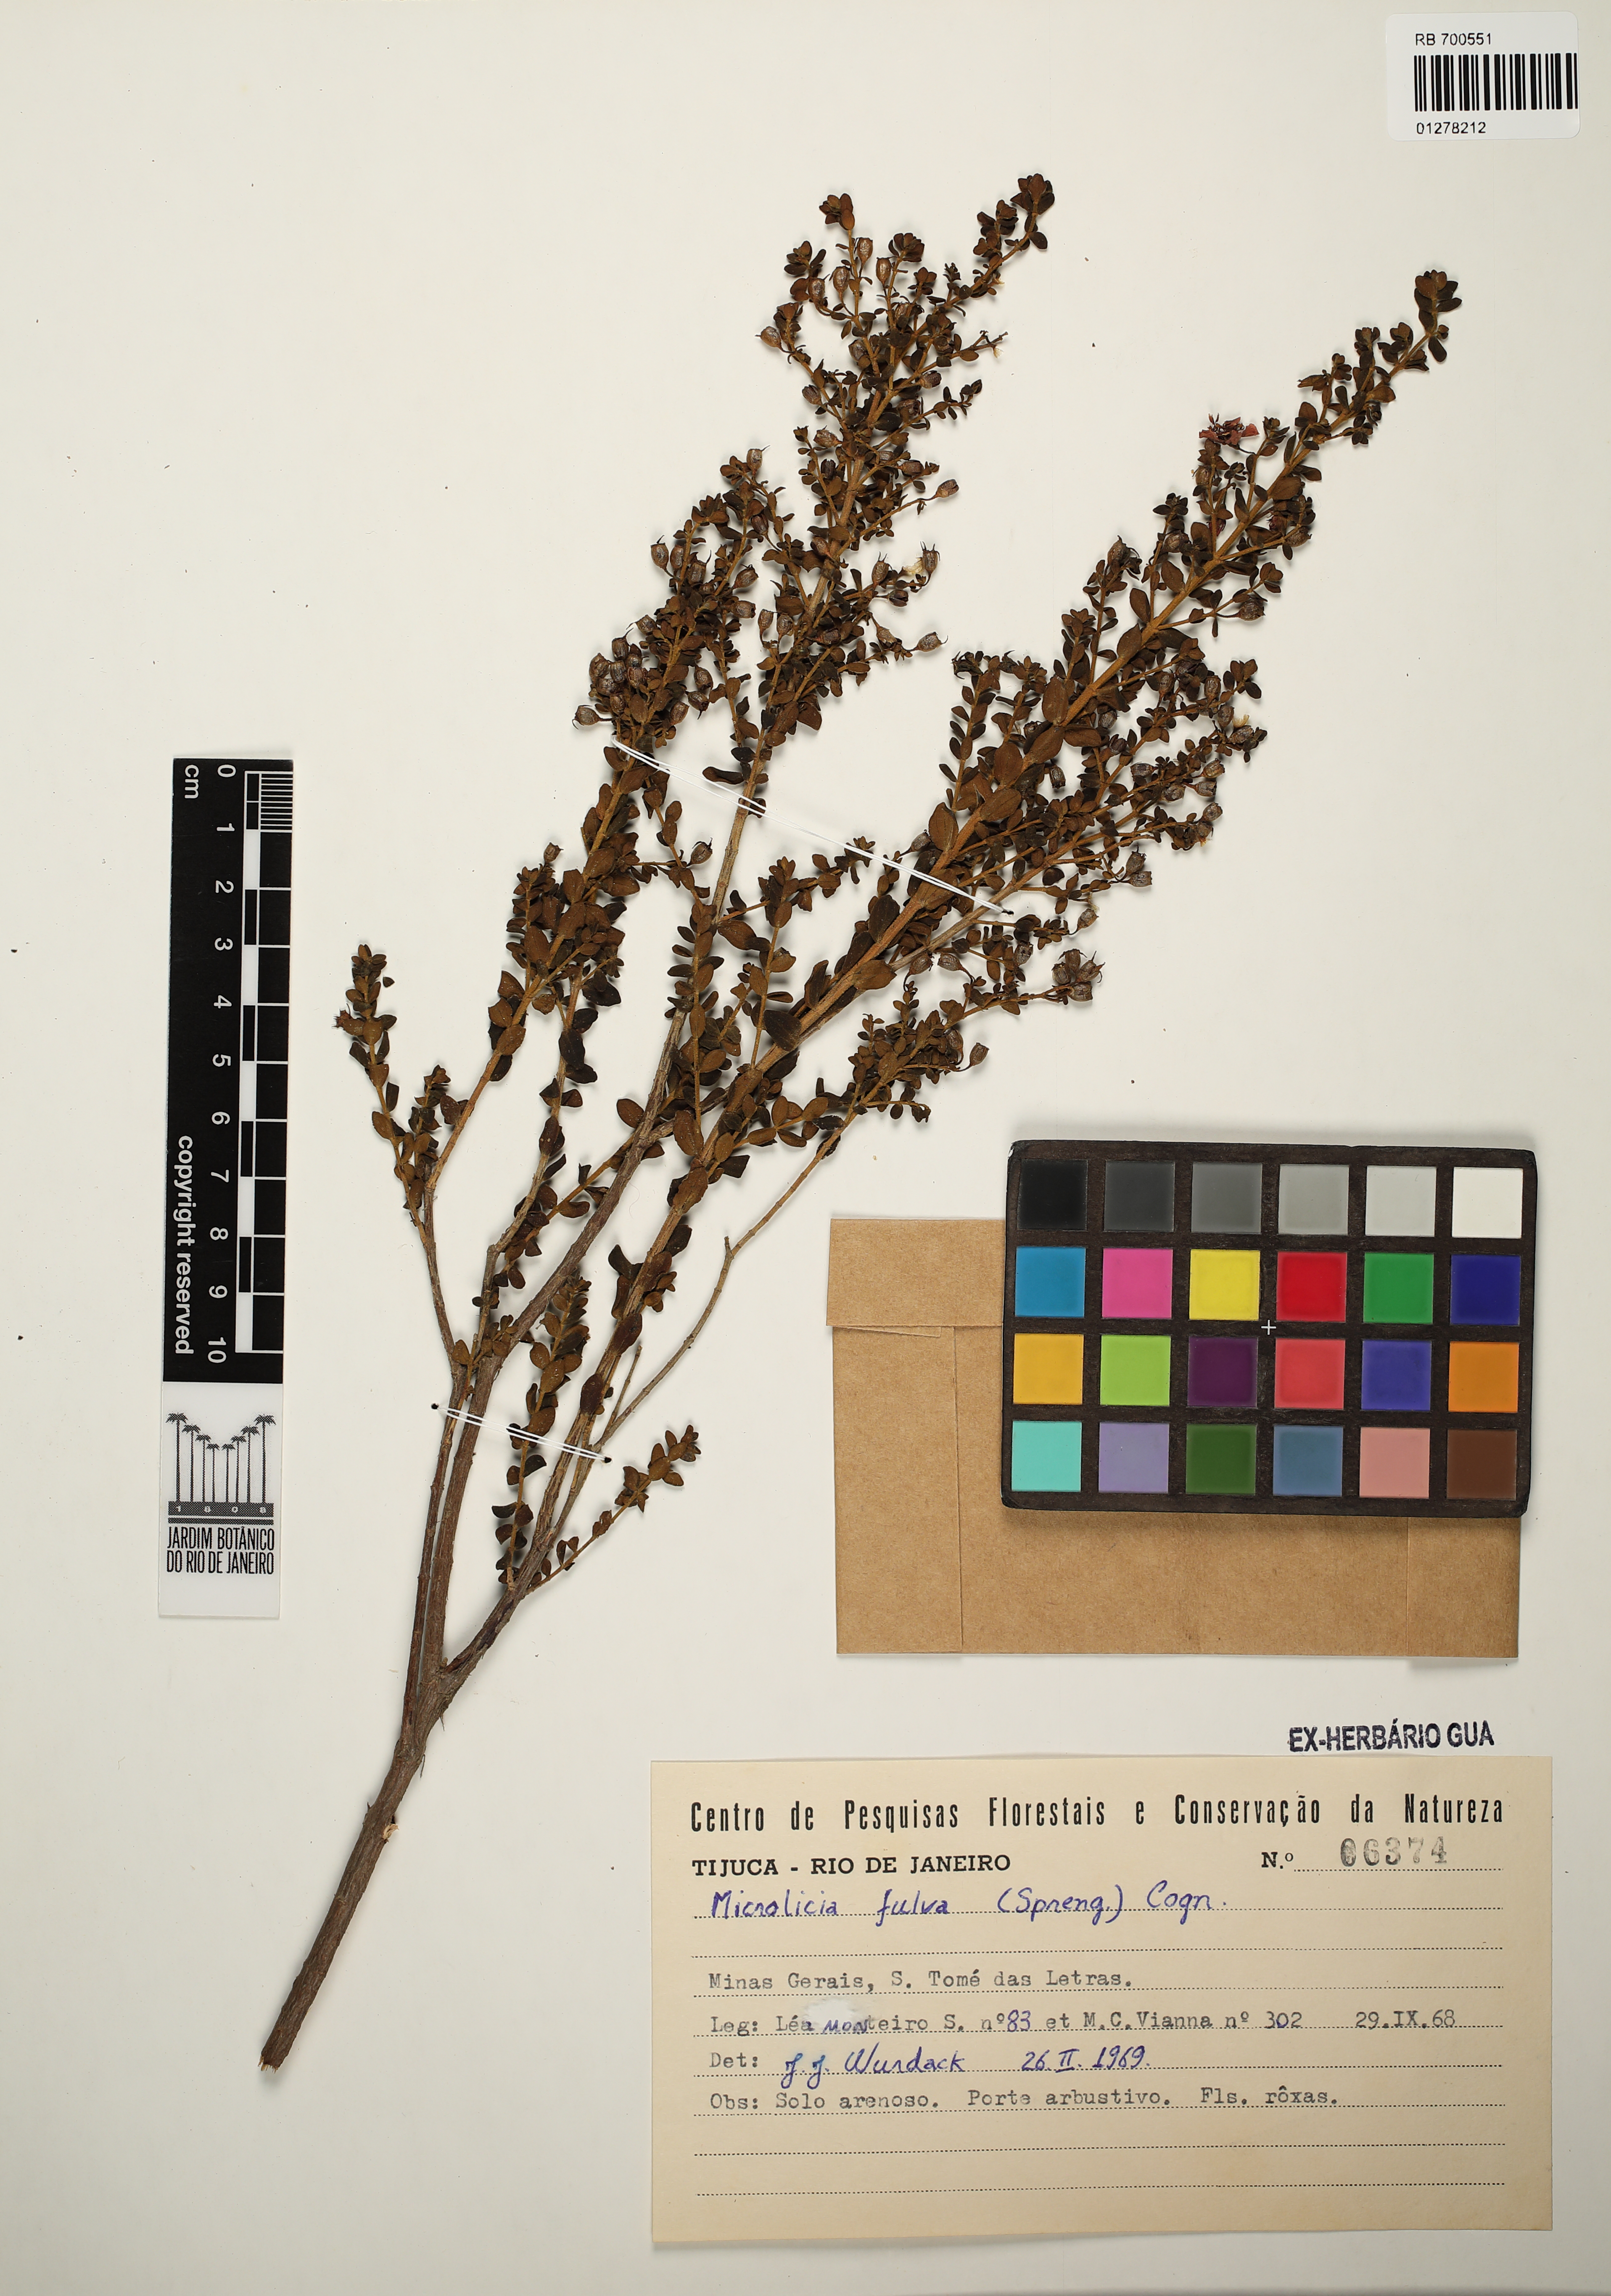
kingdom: Plantae
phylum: Tracheophyta
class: Magnoliopsida
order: Myrtales
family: Melastomataceae
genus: Microlicia
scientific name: Microlicia fulva
